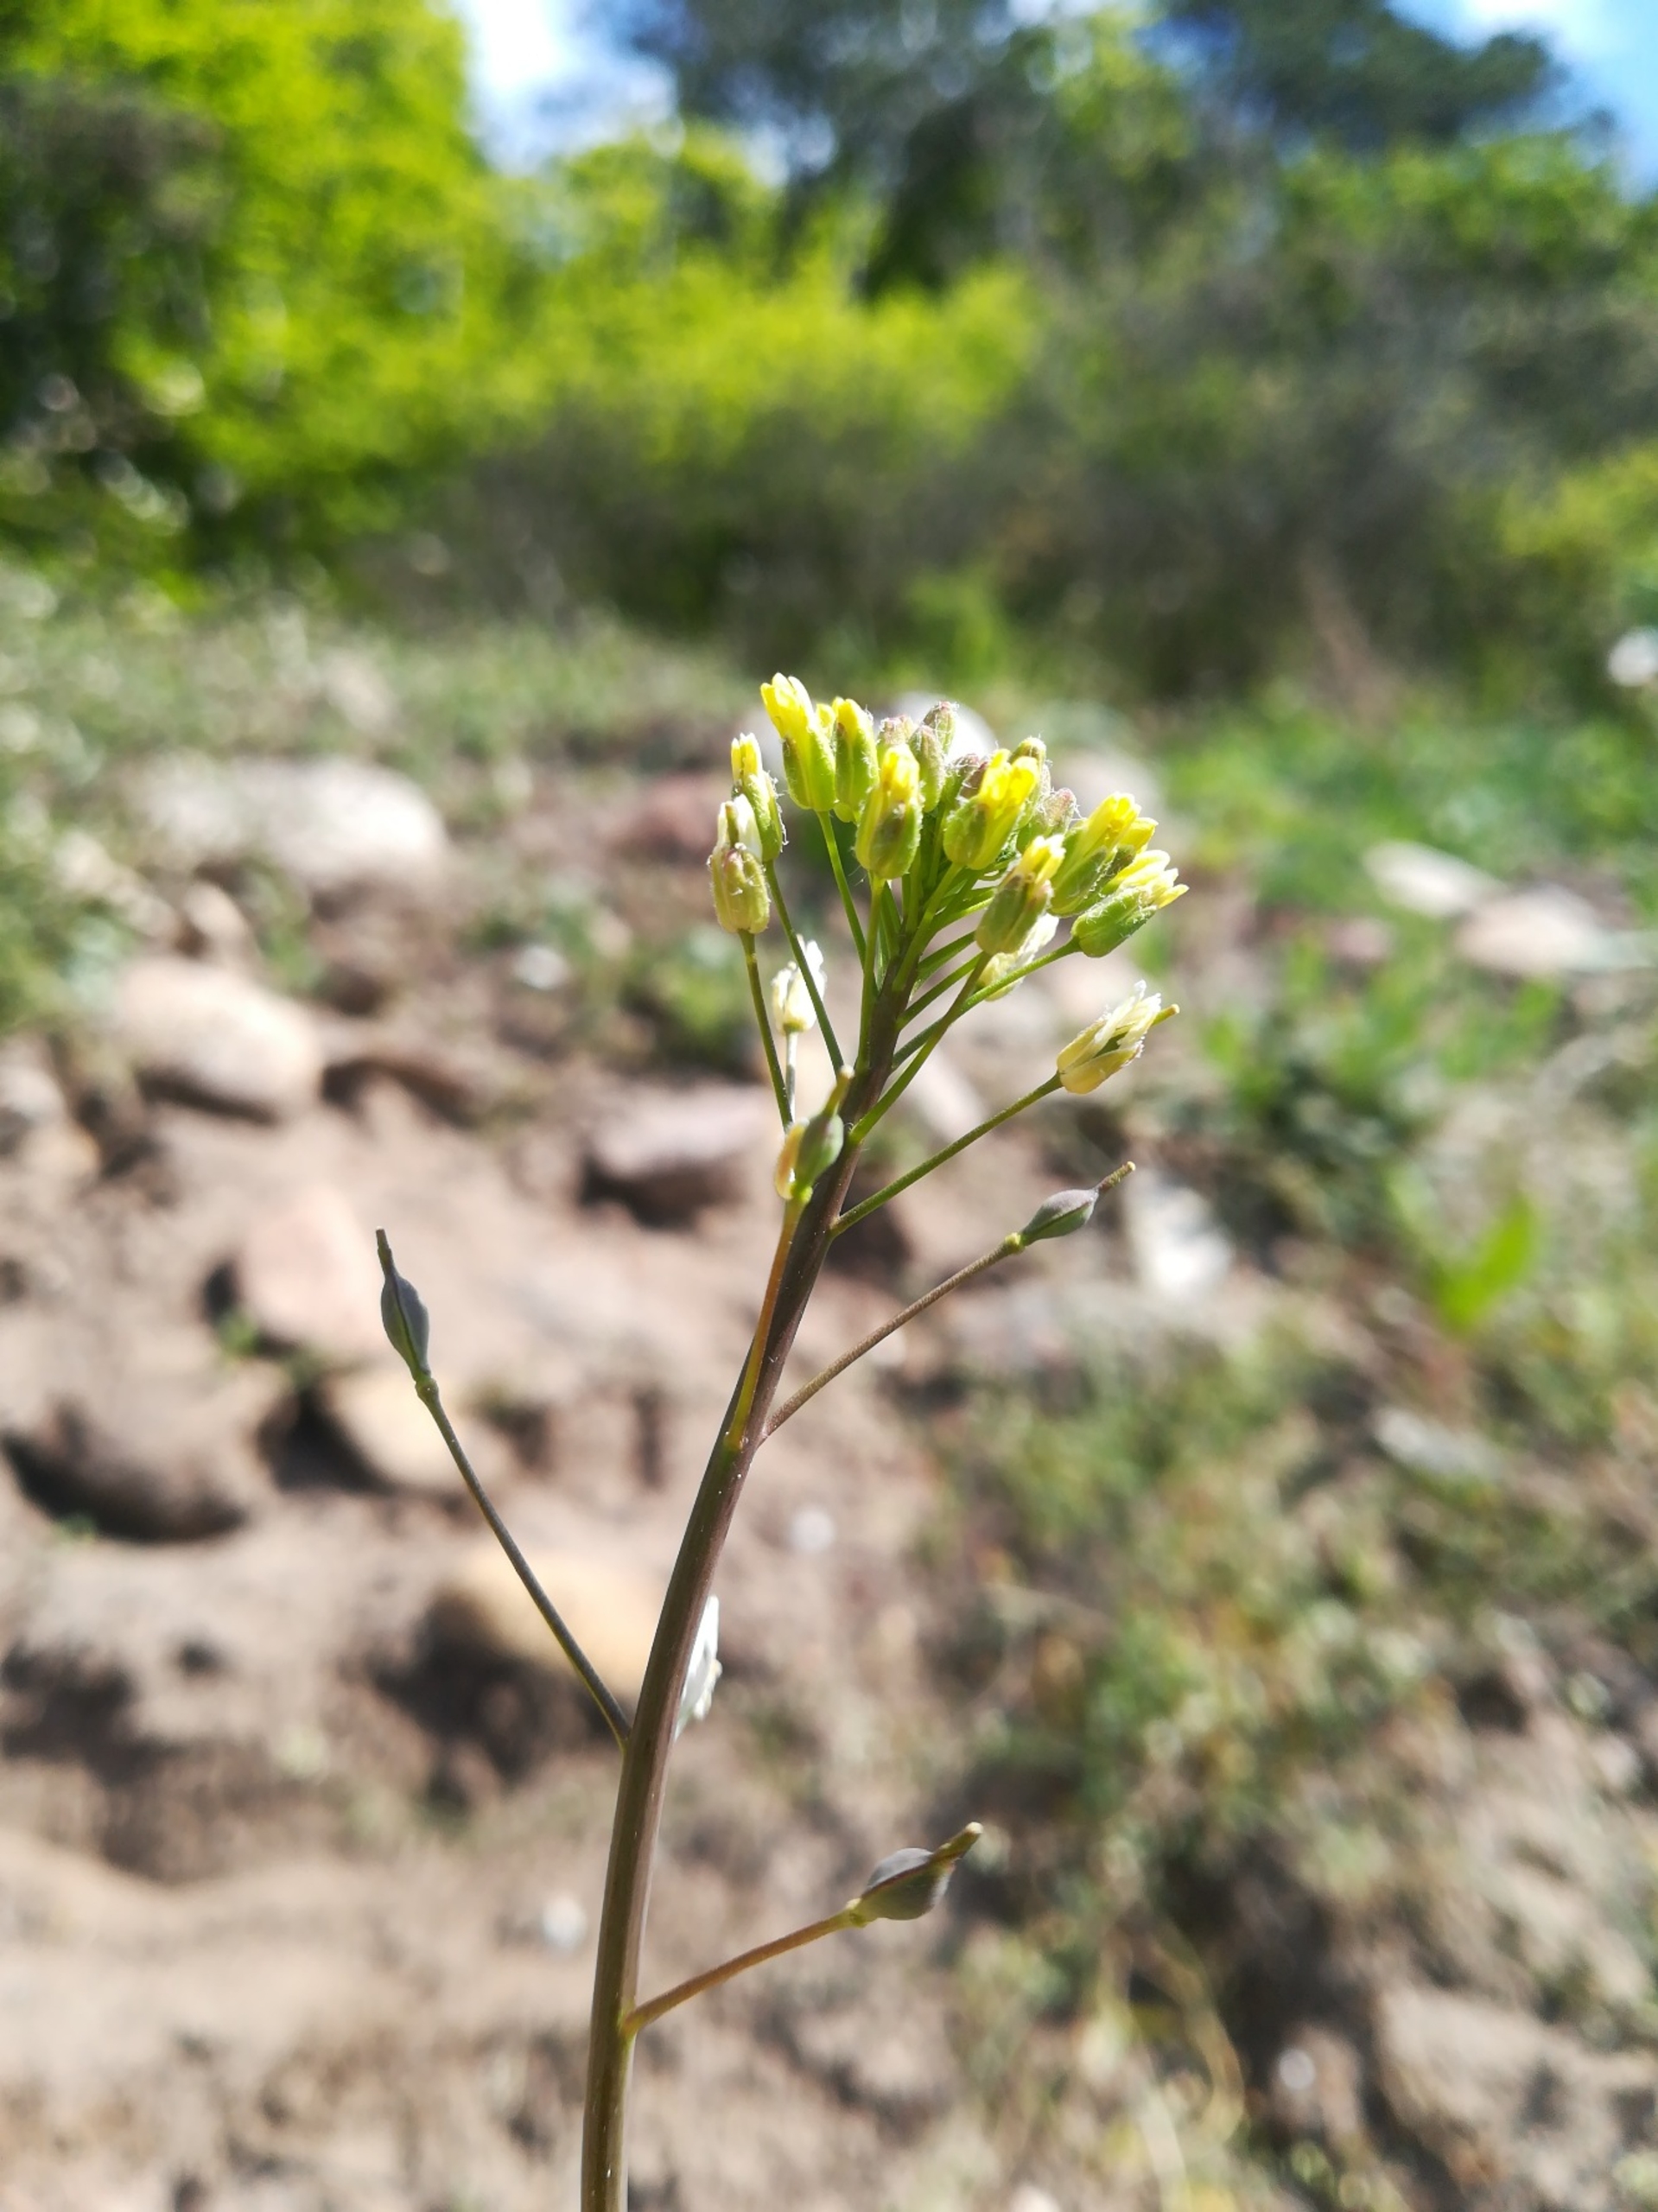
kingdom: Plantae
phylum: Tracheophyta
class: Magnoliopsida
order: Brassicales
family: Brassicaceae
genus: Camelina
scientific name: Camelina microcarpa
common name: Småskulpet dodder
